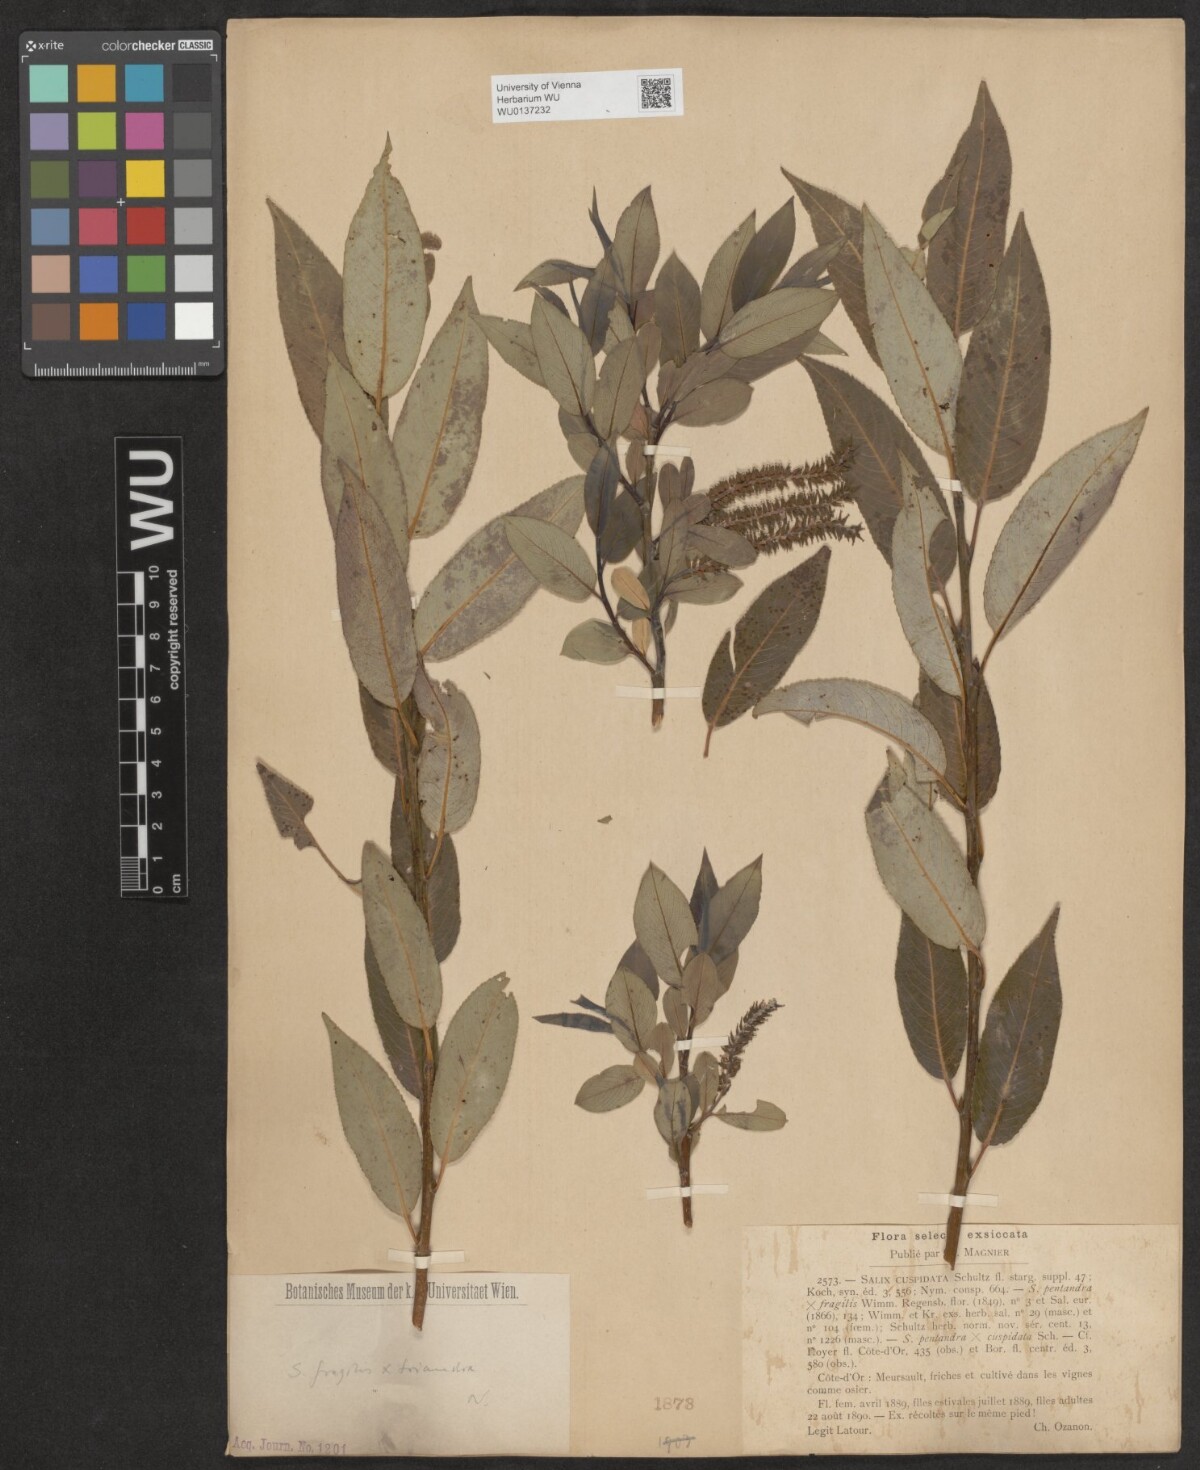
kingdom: Plantae
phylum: Tracheophyta
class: Magnoliopsida
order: Malpighiales
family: Salicaceae
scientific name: Salicaceae
